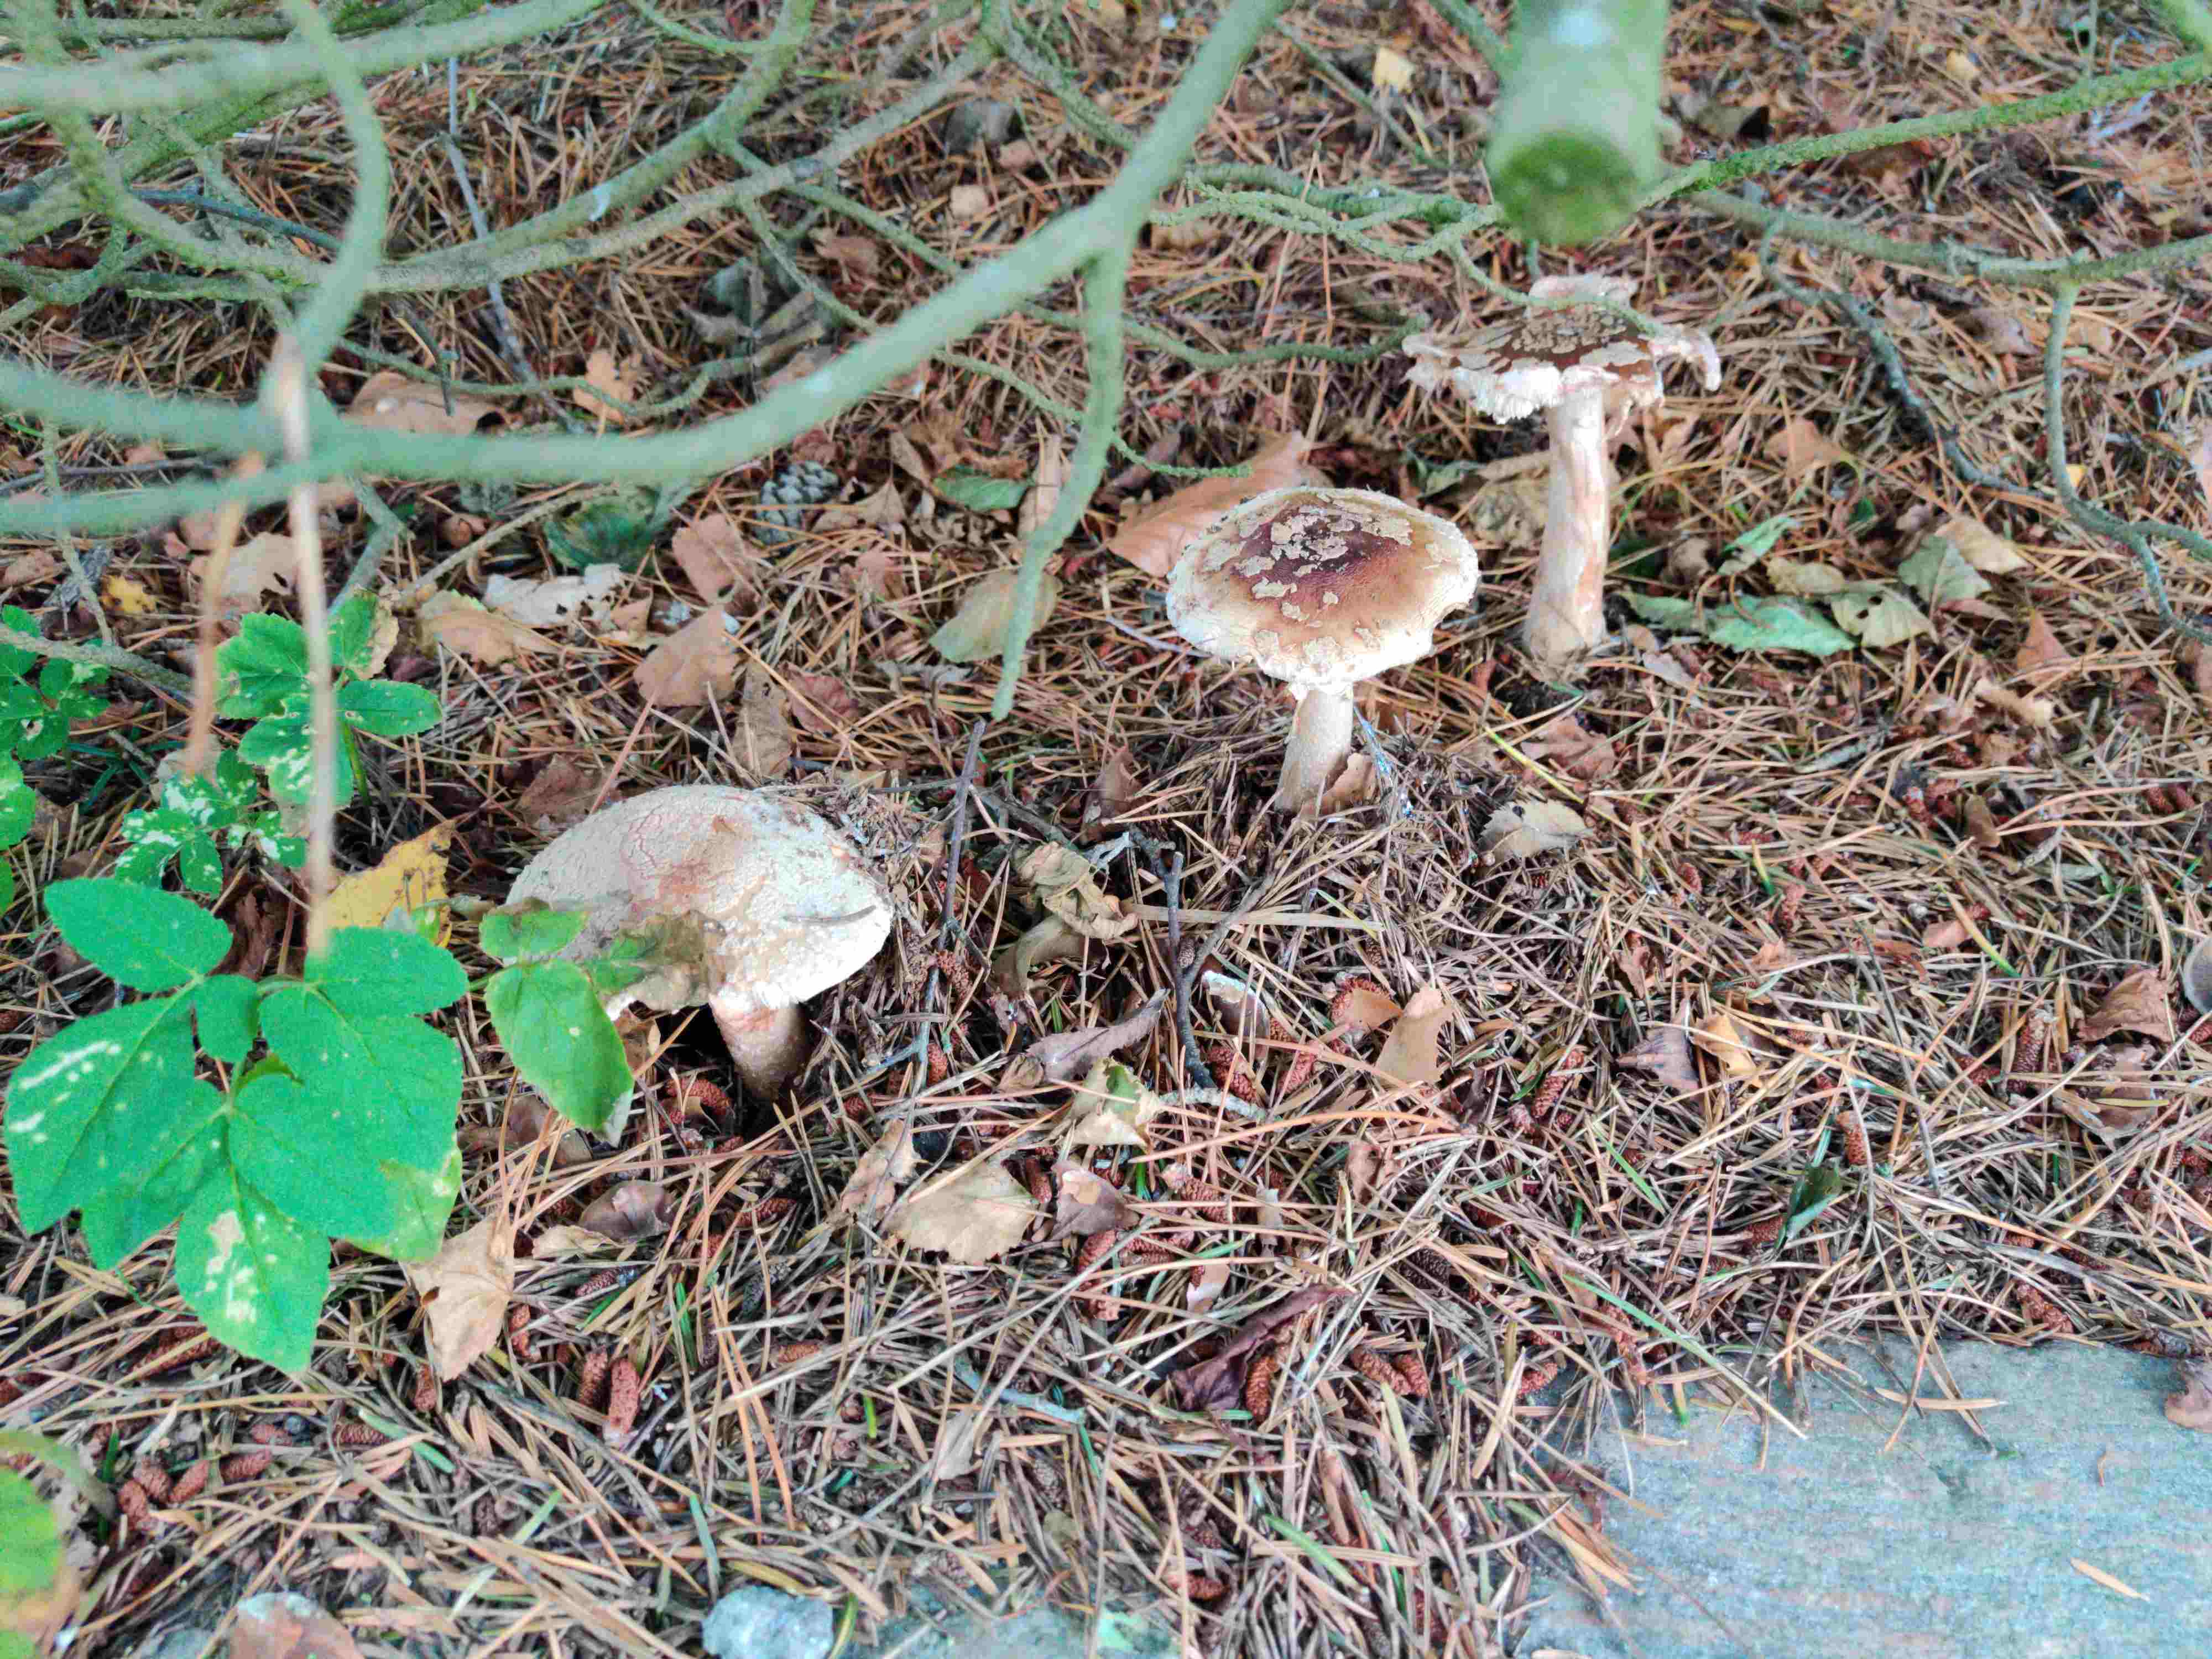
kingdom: Fungi
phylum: Basidiomycota
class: Agaricomycetes
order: Agaricales
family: Amanitaceae
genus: Amanita
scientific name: Amanita rubescens
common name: rødmende fluesvamp
